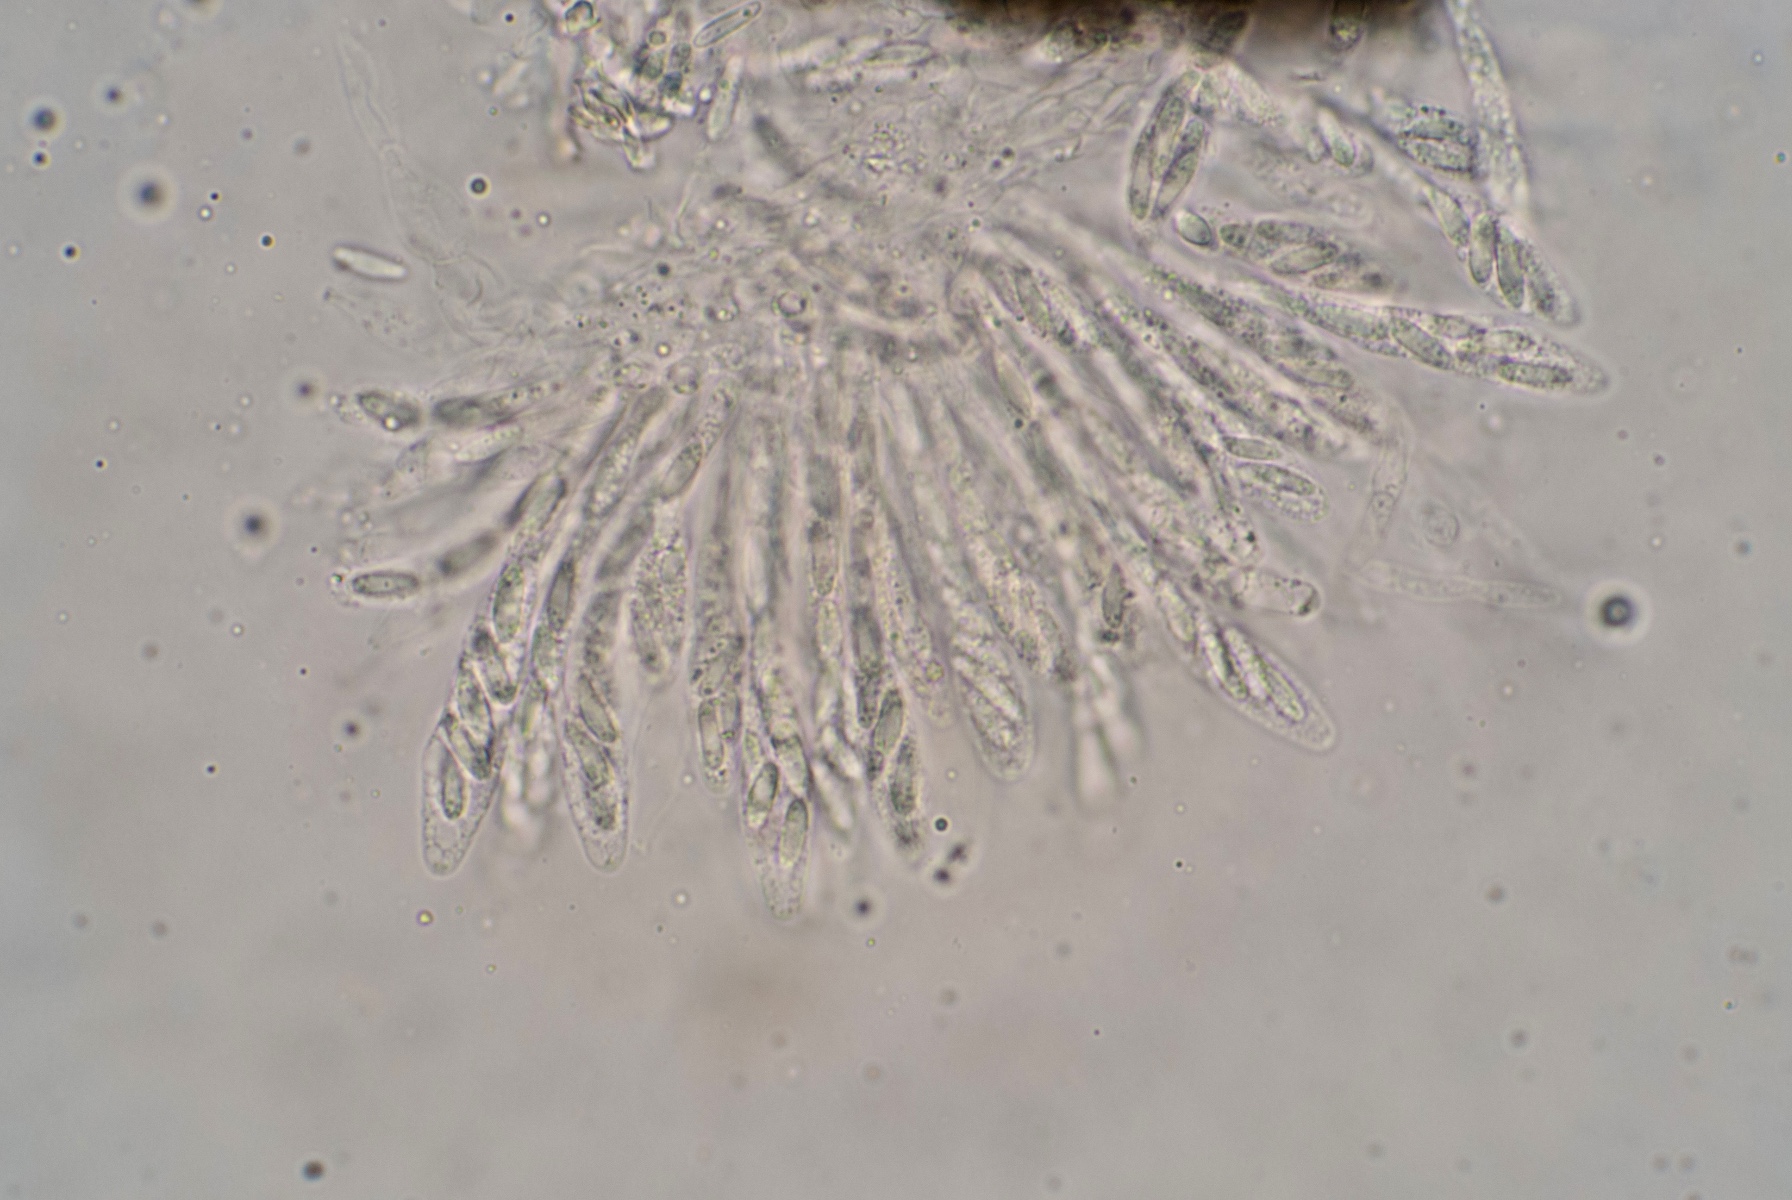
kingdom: Fungi
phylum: Ascomycota
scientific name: Ascomycota
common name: sæksvampe
